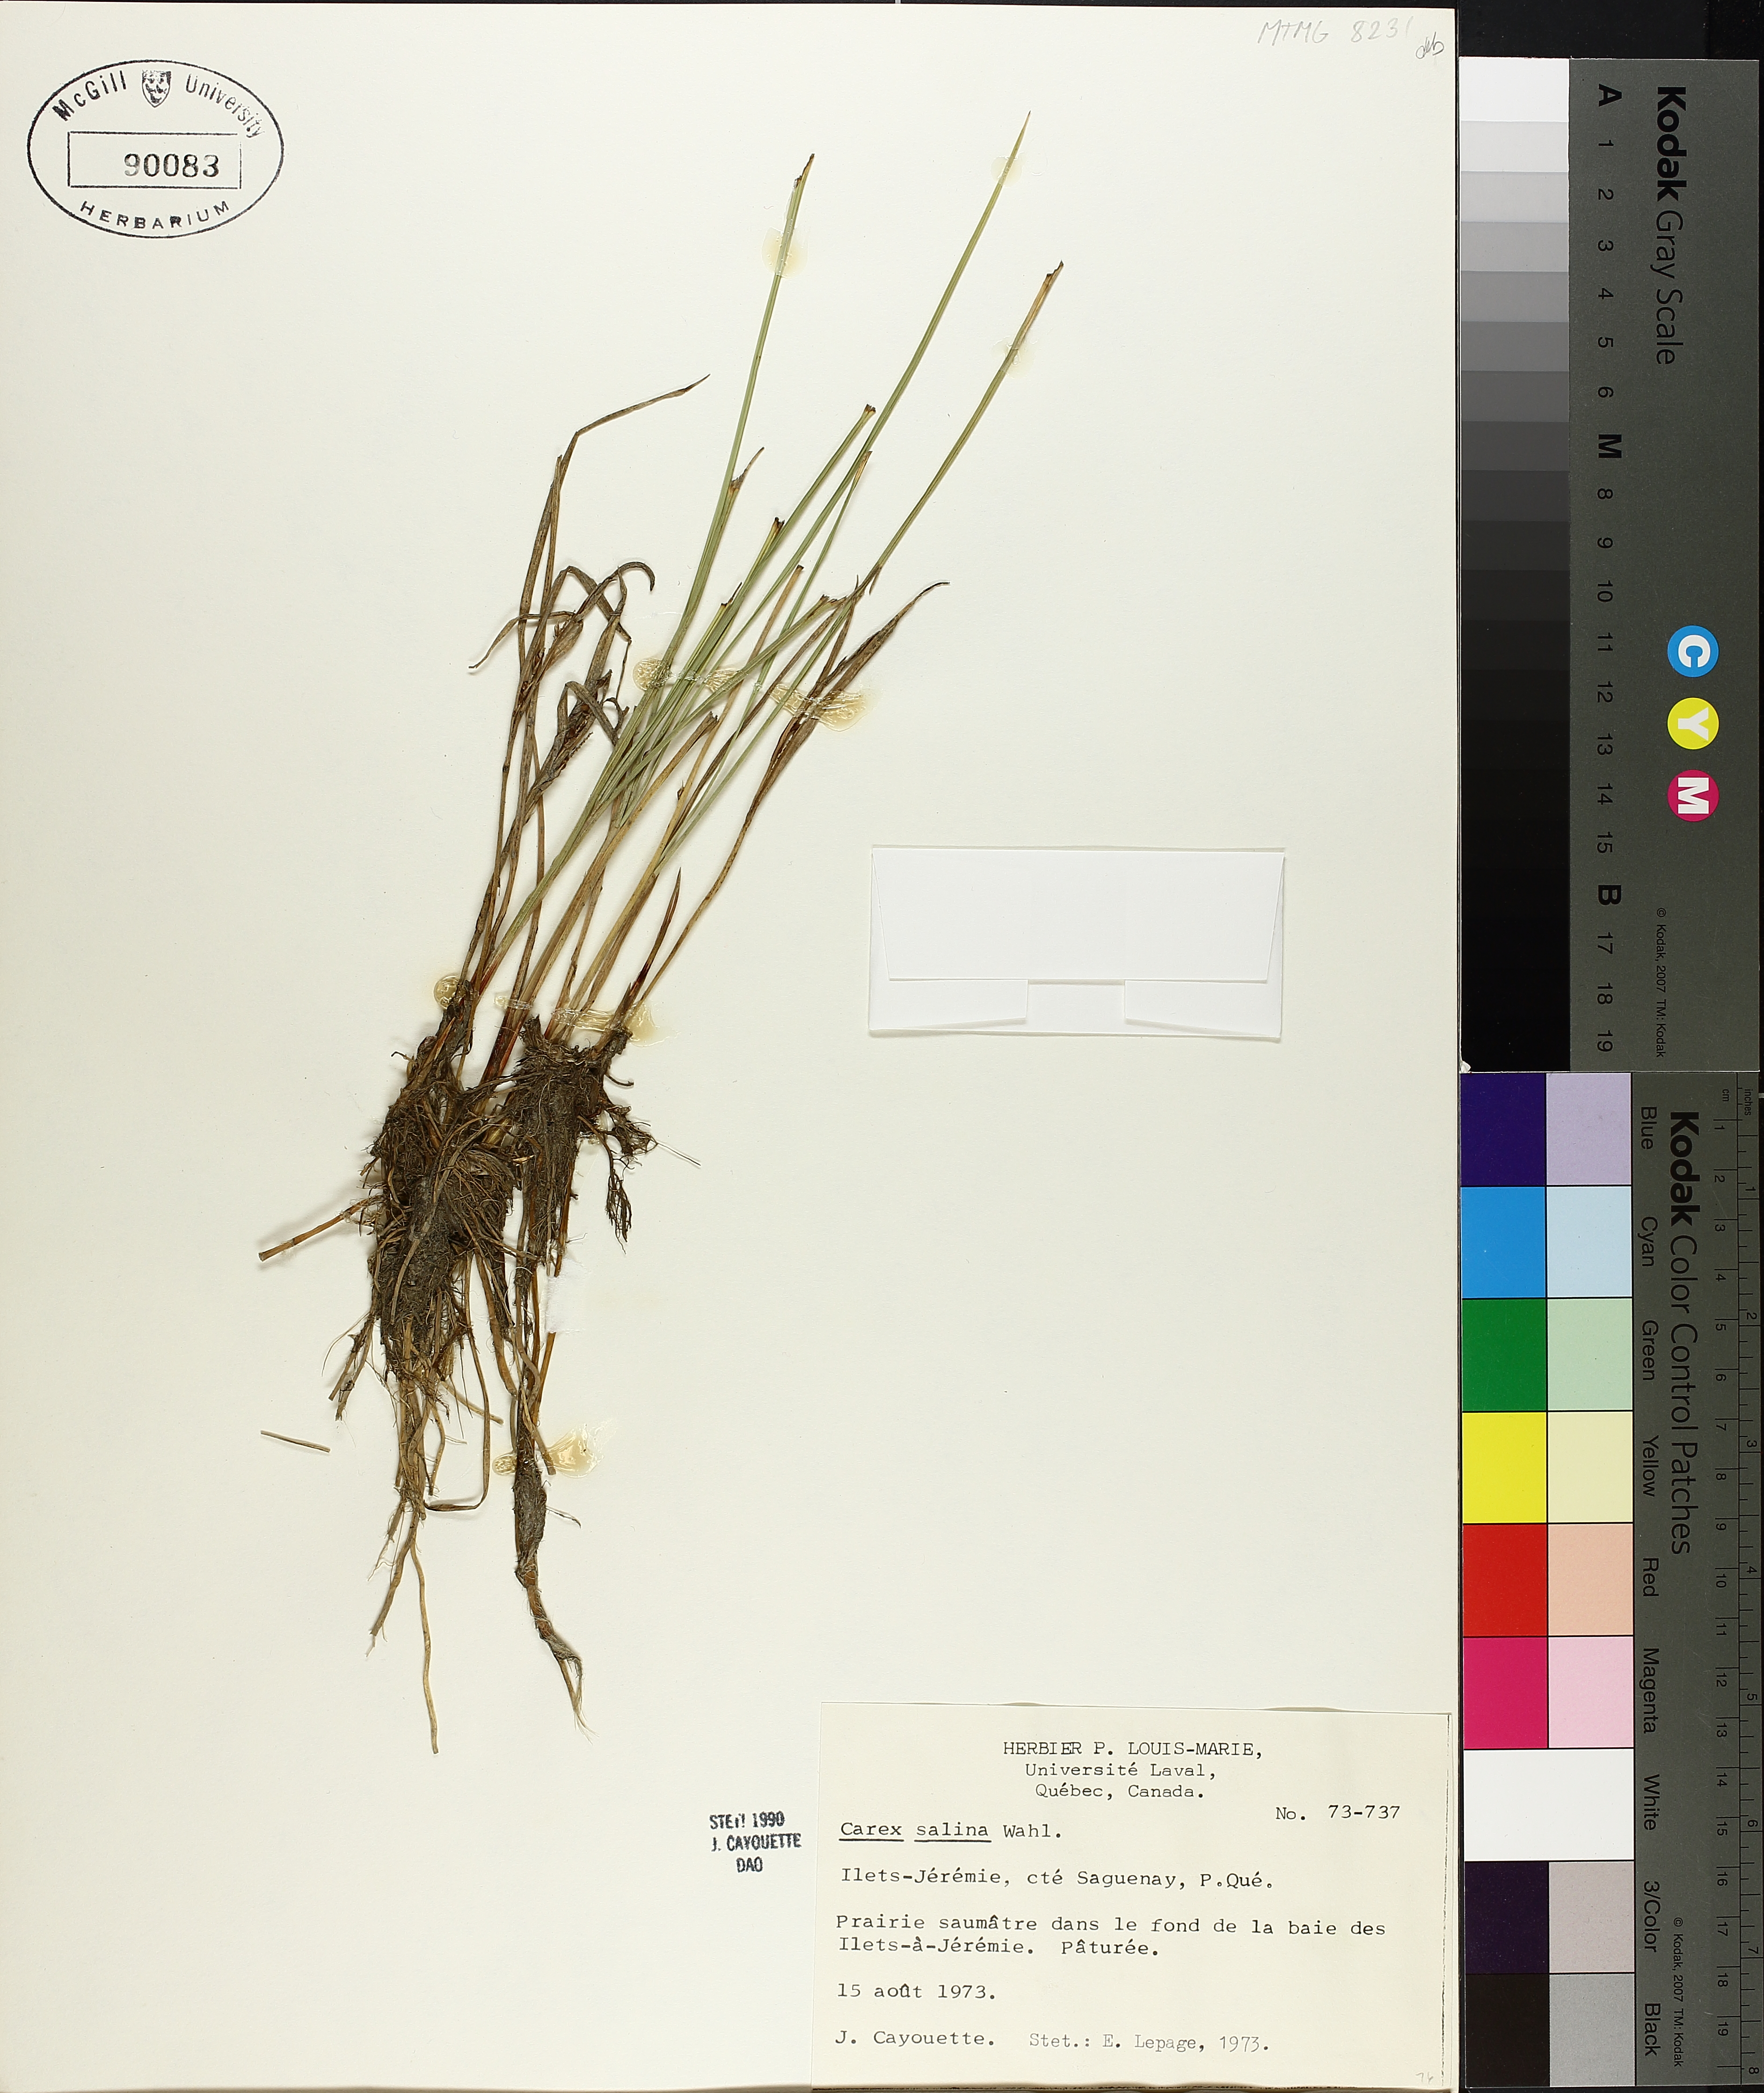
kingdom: Plantae
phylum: Tracheophyta
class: Liliopsida
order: Poales
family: Cyperaceae
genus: Carex
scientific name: Carex salina
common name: Saltmarsh sedge
